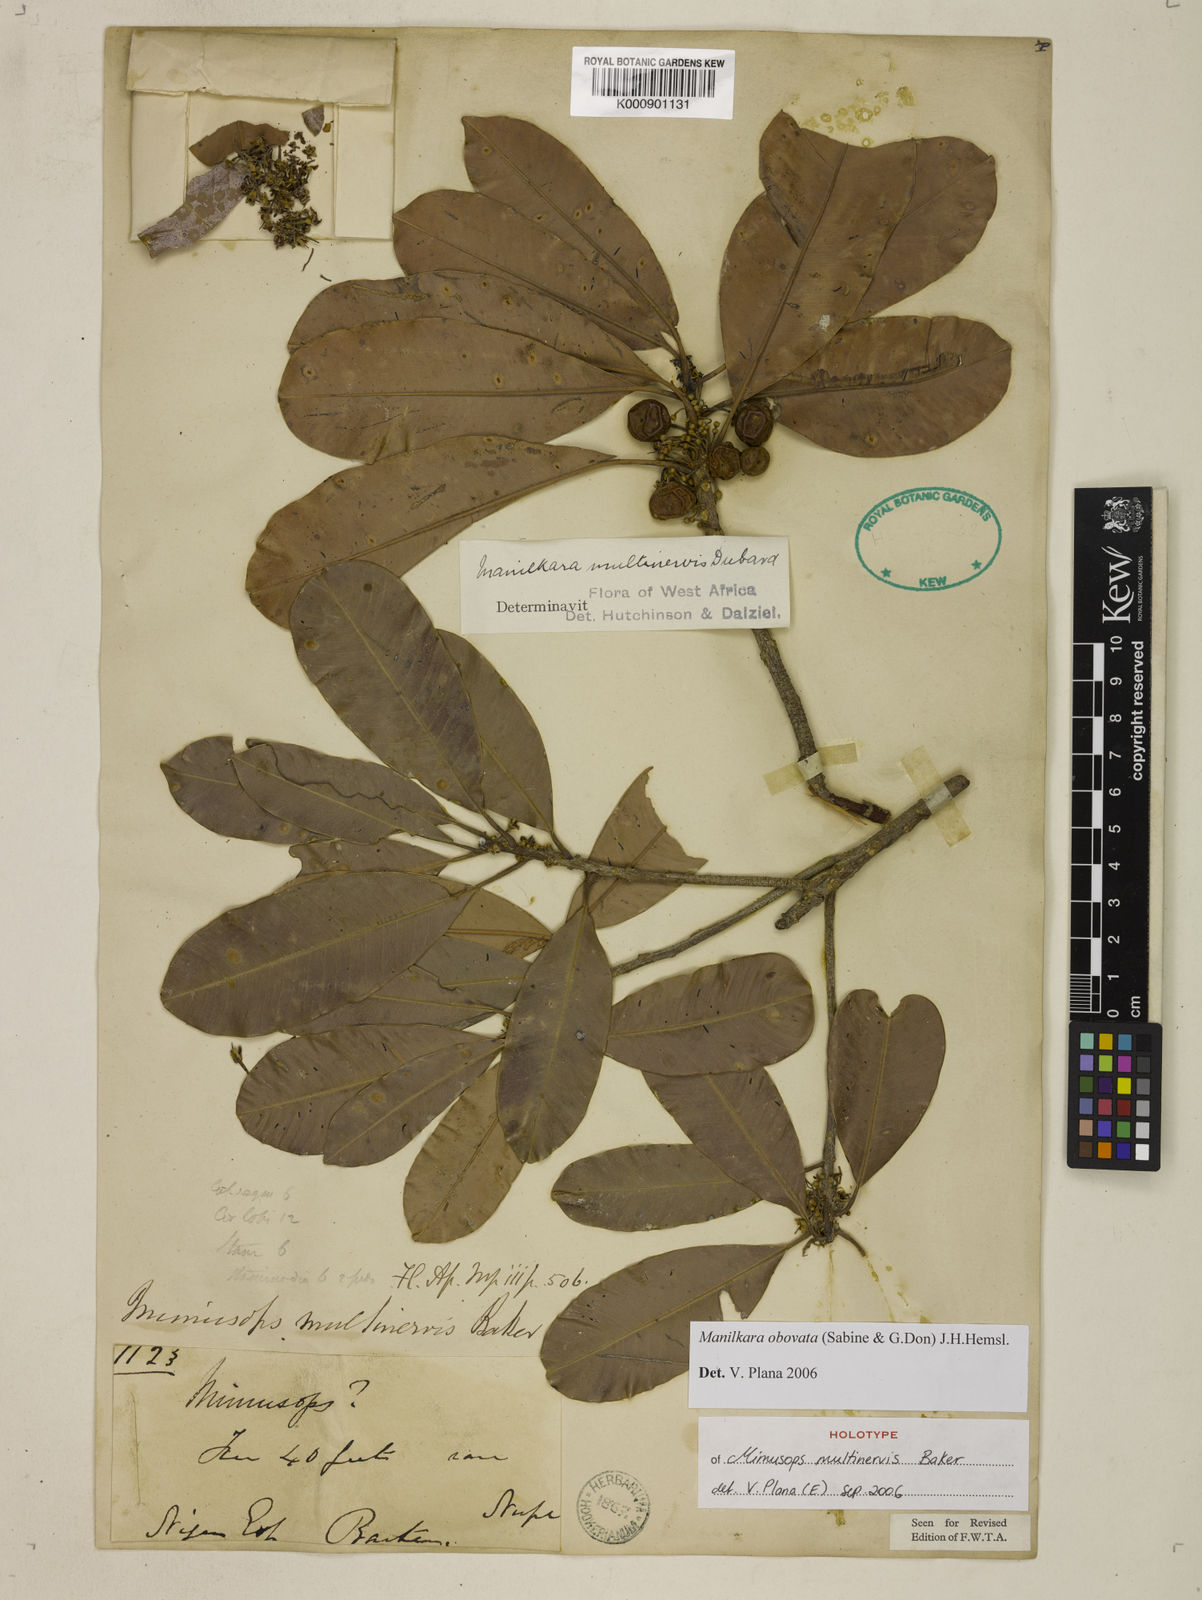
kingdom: Plantae
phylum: Tracheophyta
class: Magnoliopsida
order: Ericales
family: Sapotaceae
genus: Manilkara
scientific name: Manilkara obovata
